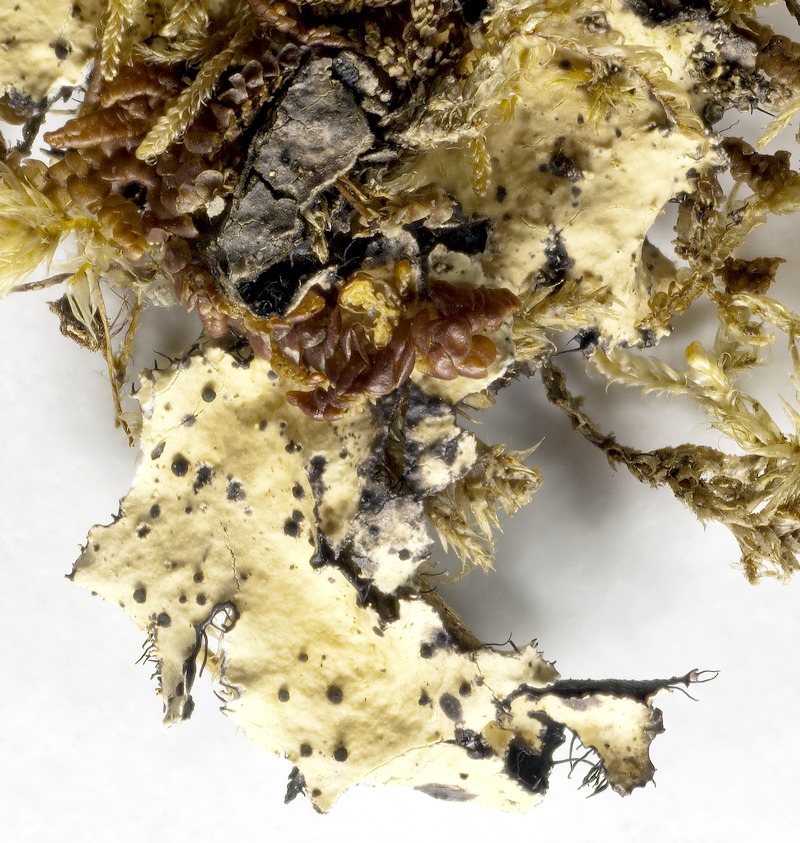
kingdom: Fungi
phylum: Ascomycota
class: Dothideomycetes
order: Abrothallales
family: Abrothallaceae
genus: Abrothallus
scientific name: Abrothallus parmotrematis
